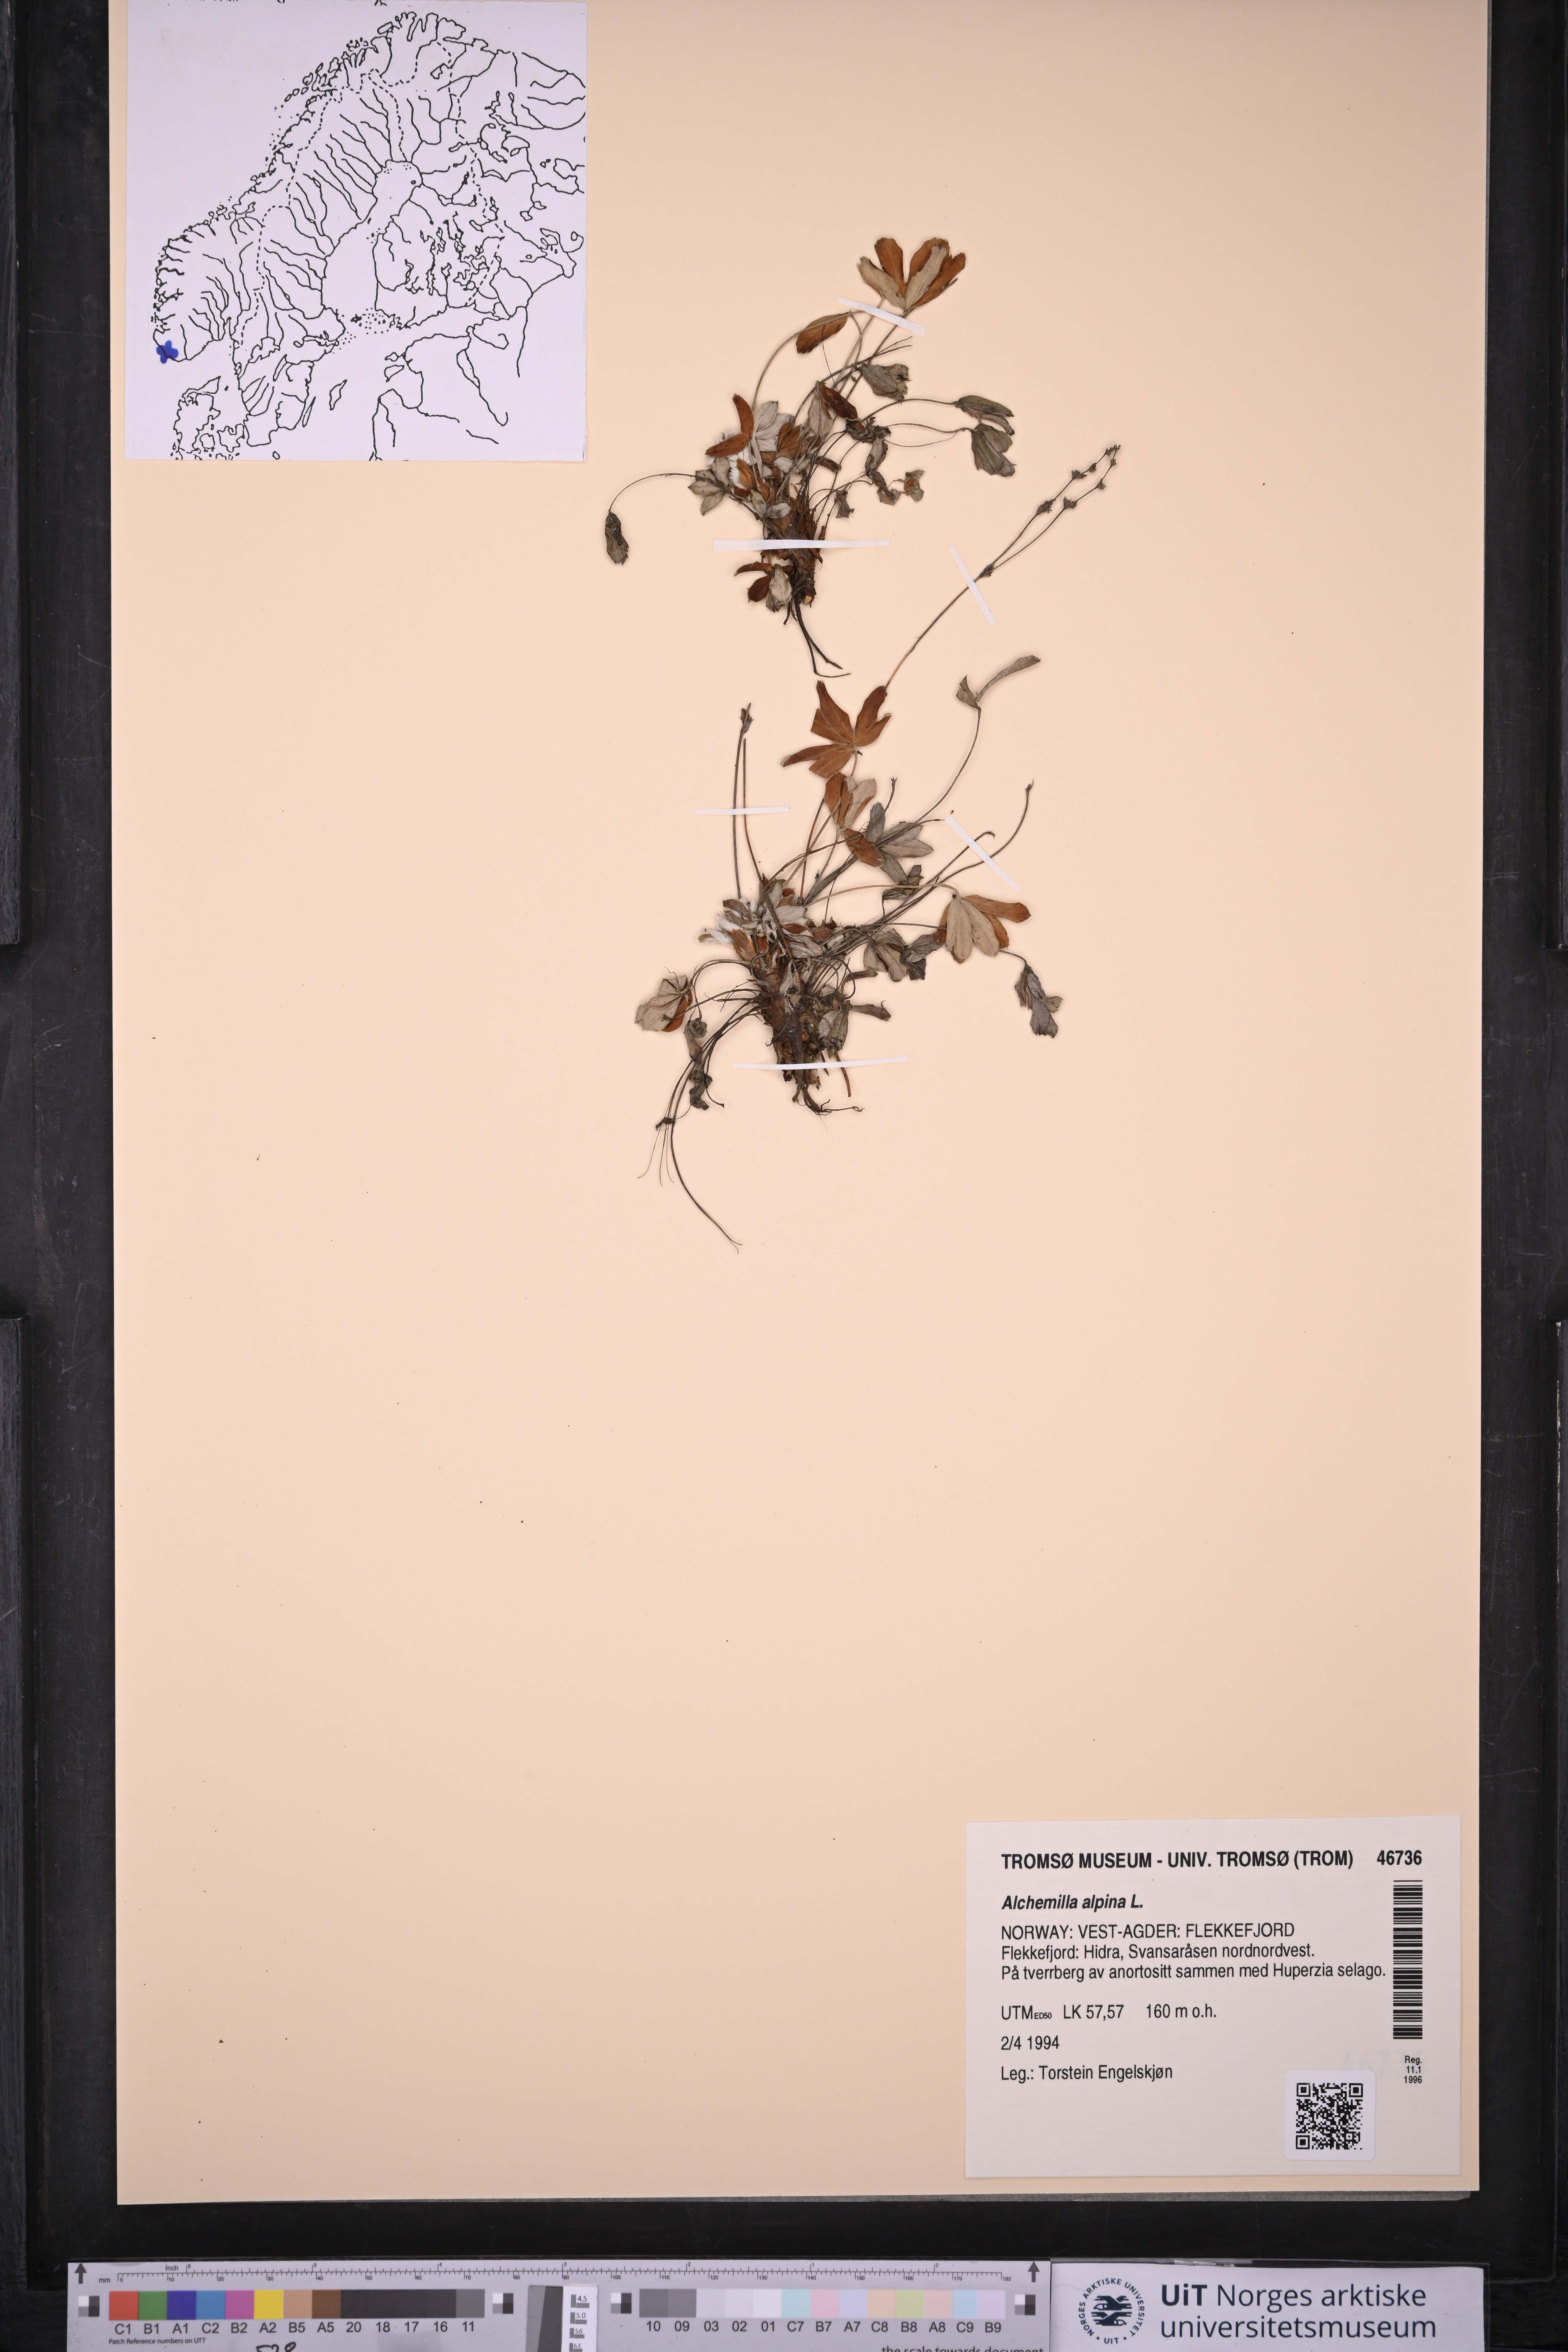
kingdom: Plantae
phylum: Tracheophyta
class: Magnoliopsida
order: Rosales
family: Rosaceae
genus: Alchemilla
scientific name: Alchemilla alpina
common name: Alpine lady's-mantle
